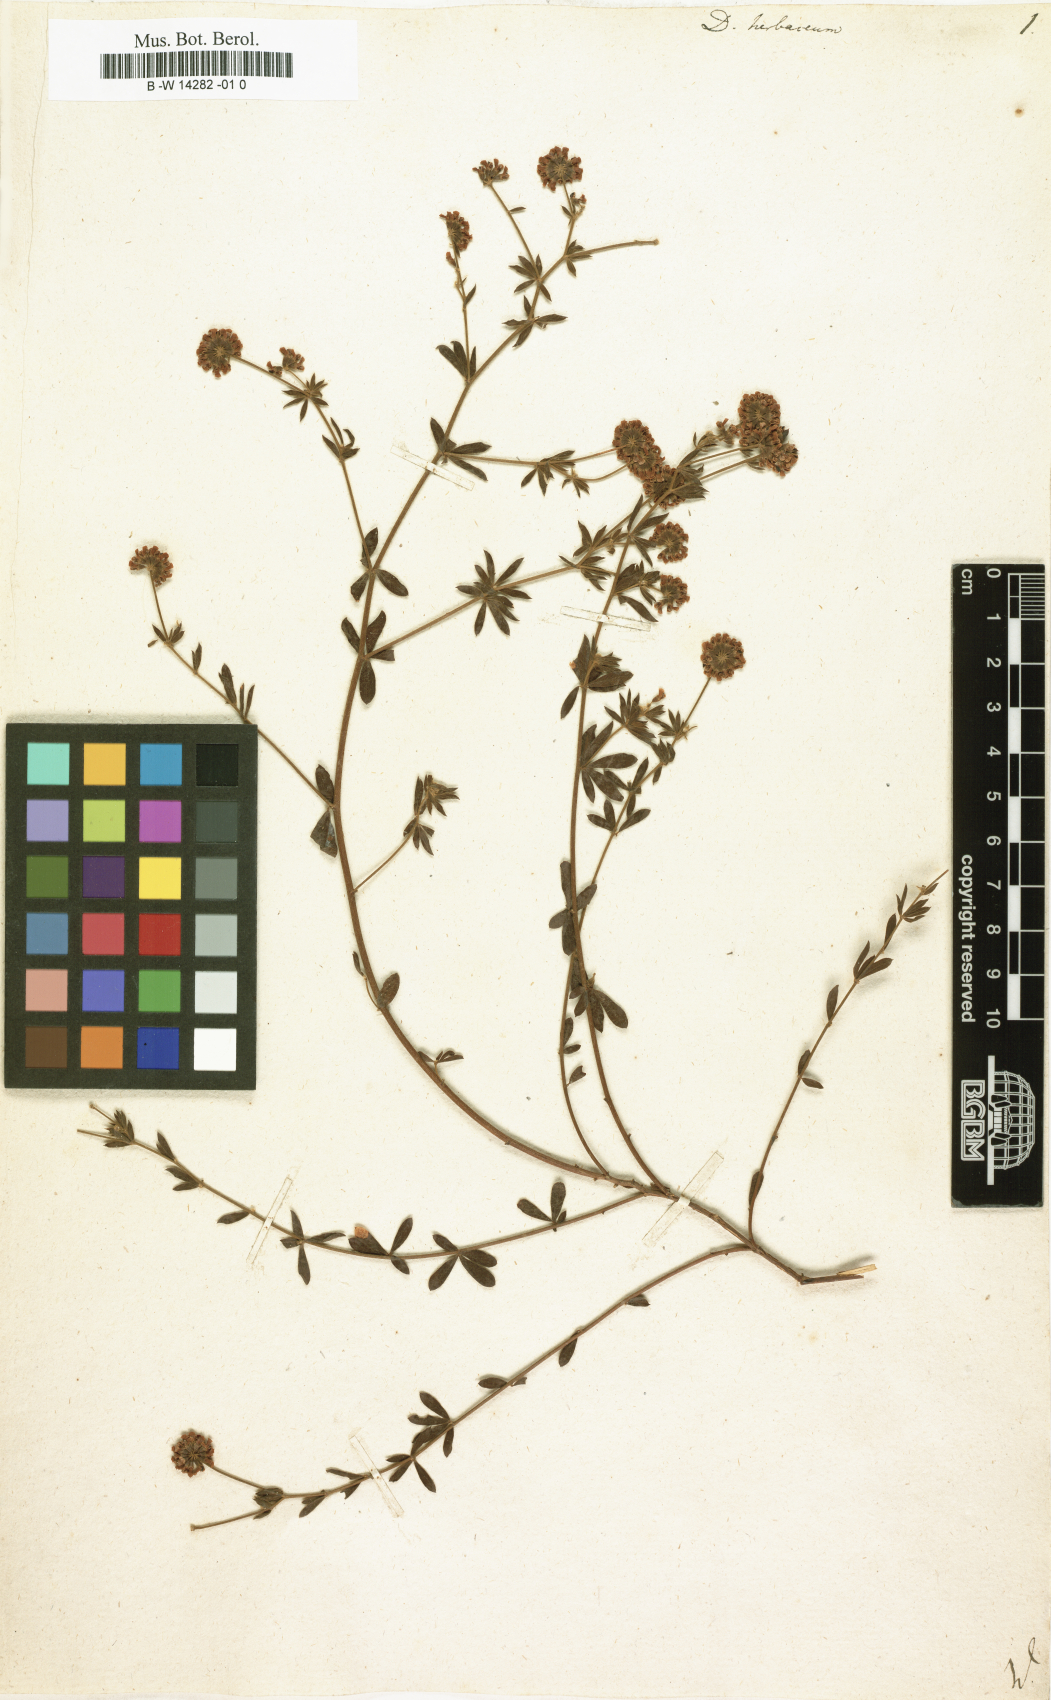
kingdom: Plantae
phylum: Tracheophyta
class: Magnoliopsida
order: Fabales
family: Fabaceae
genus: Lotus
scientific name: Lotus herbaceus
